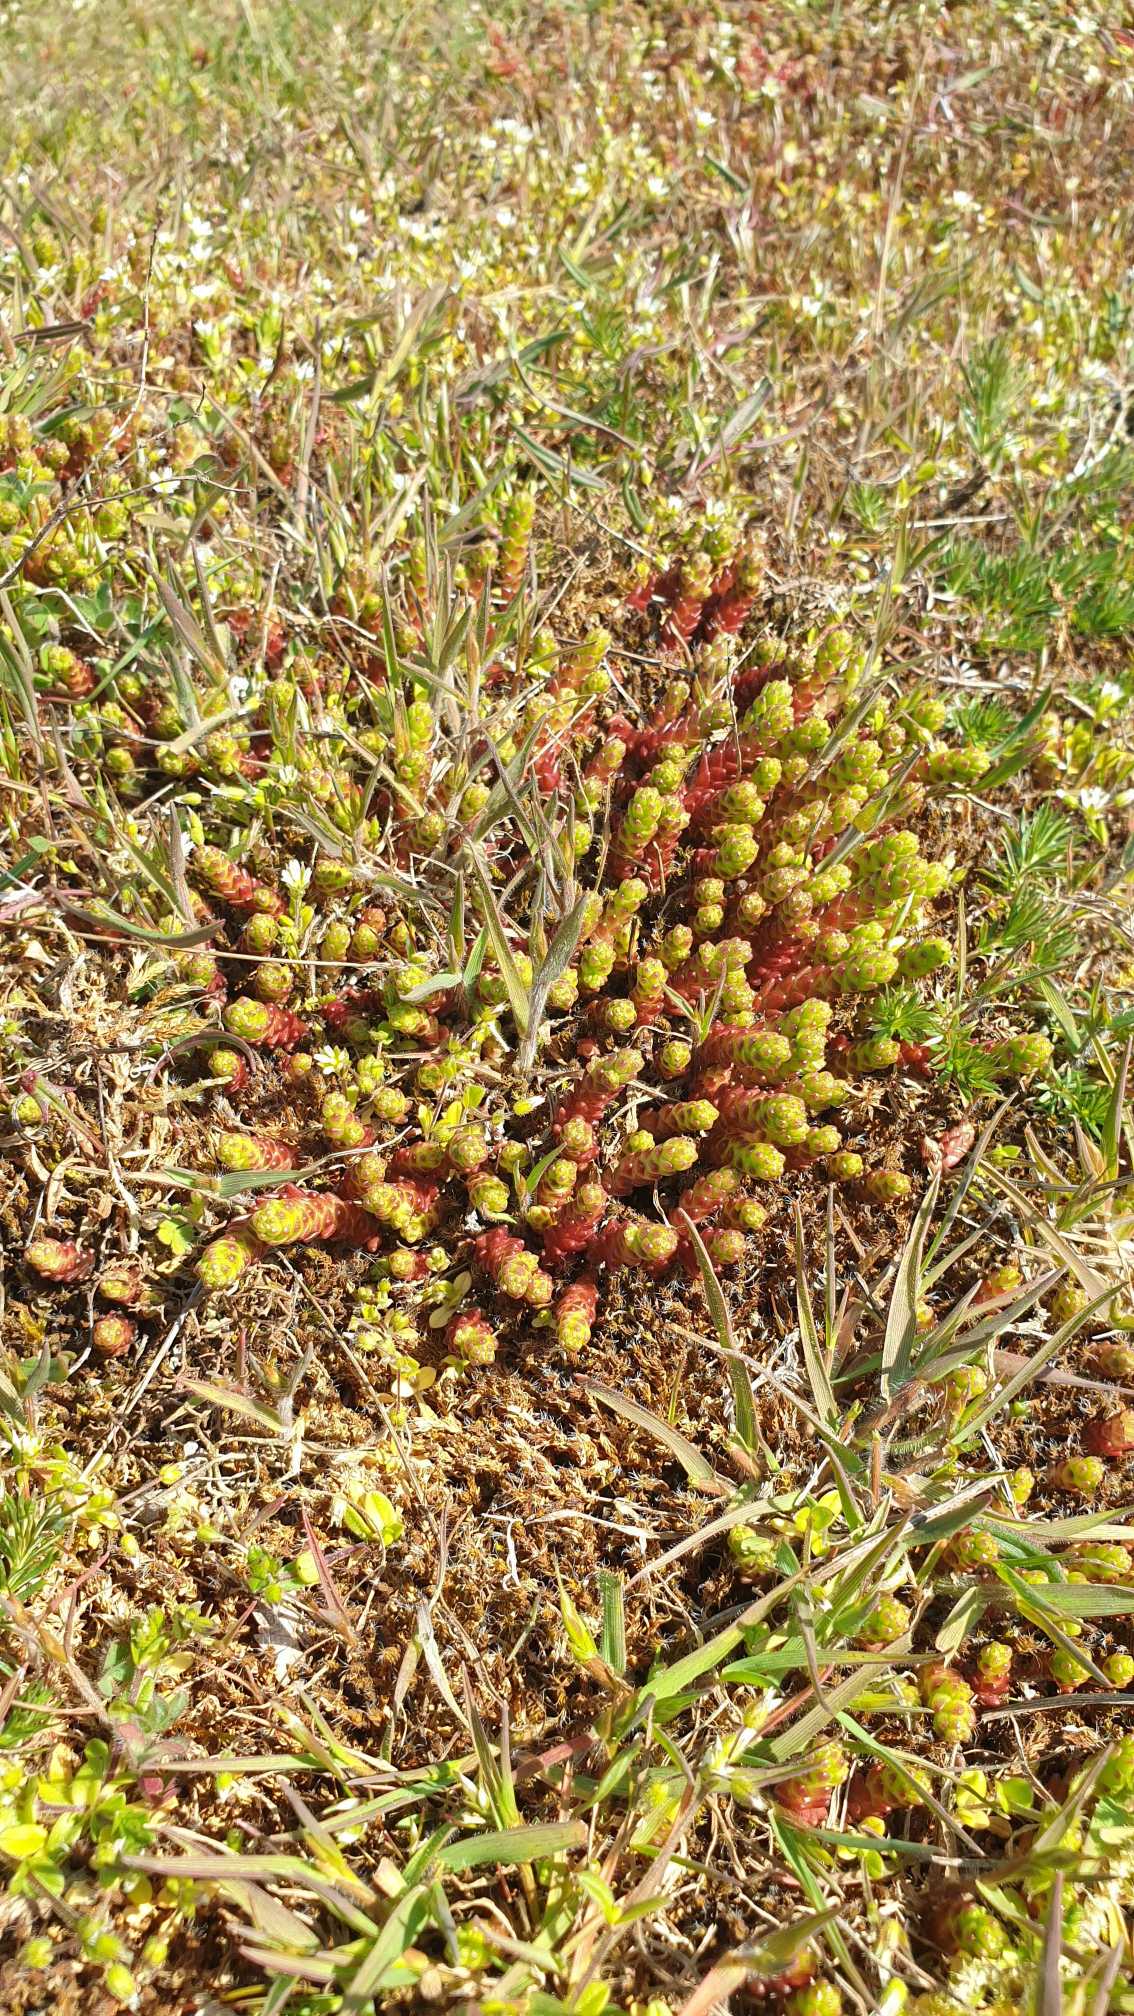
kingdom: Plantae
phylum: Tracheophyta
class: Magnoliopsida
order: Saxifragales
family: Crassulaceae
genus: Sedum
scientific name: Sedum acre
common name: Bidende stenurt
